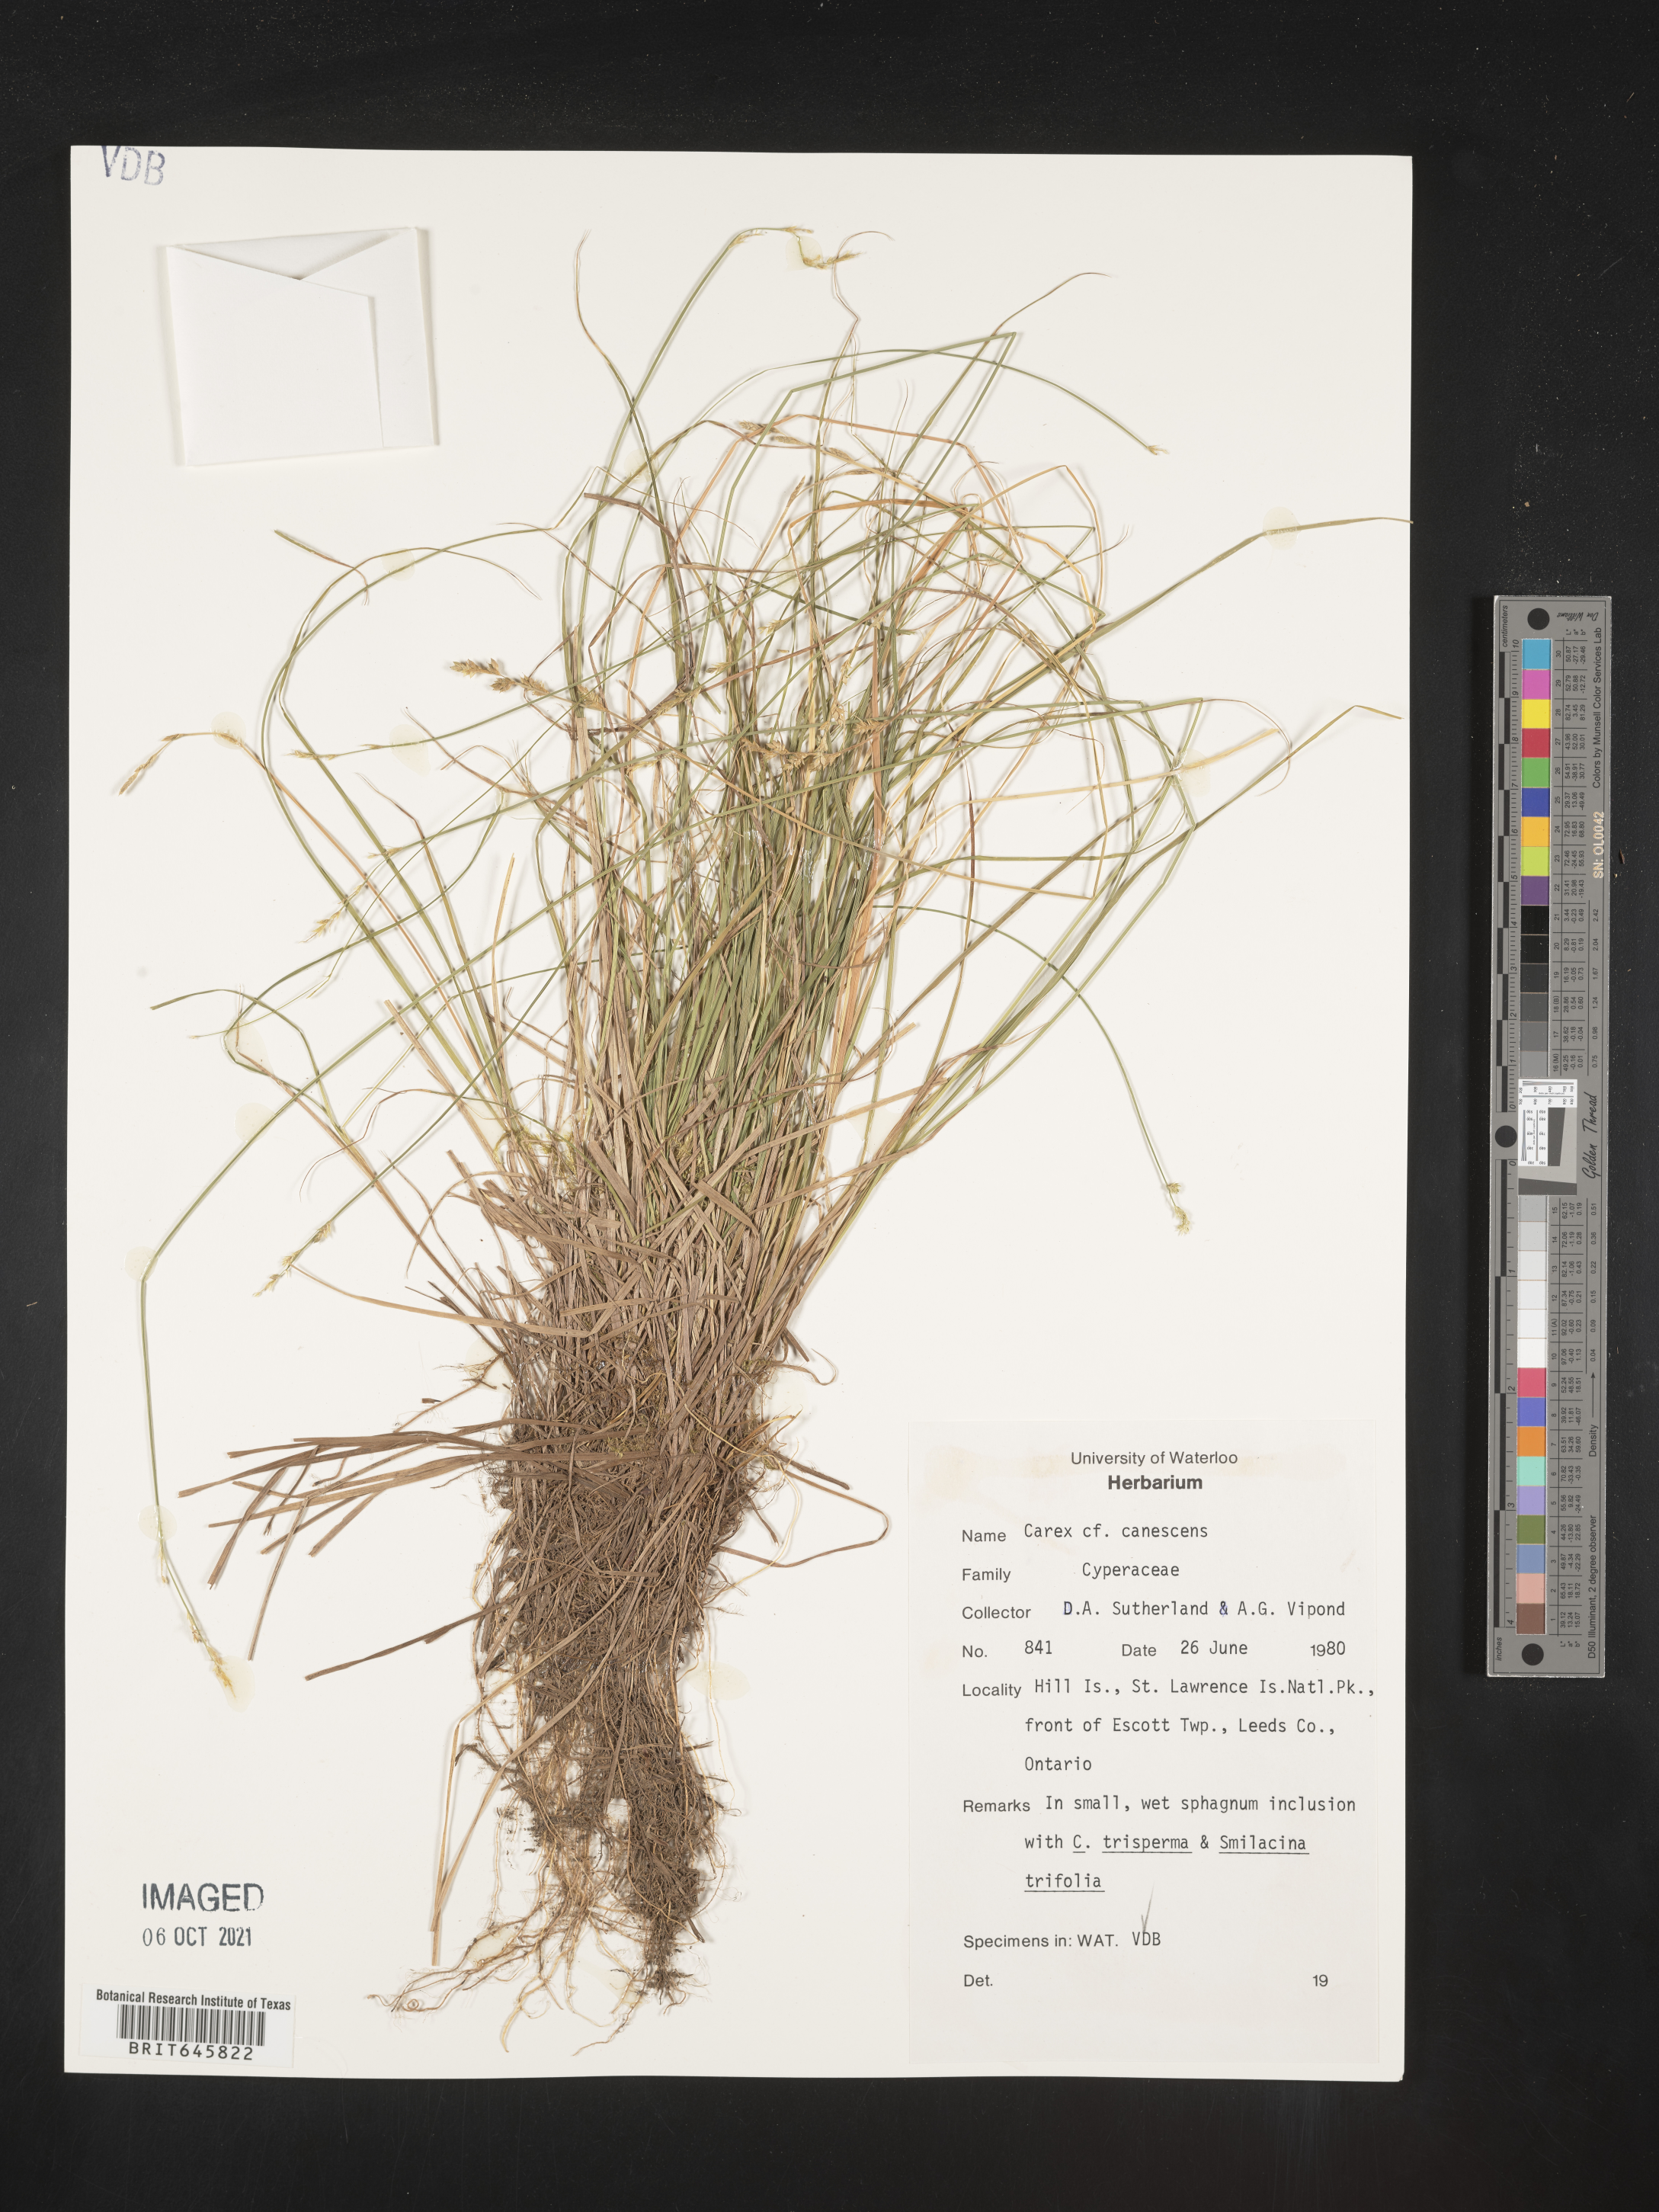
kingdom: Plantae
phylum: Tracheophyta
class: Liliopsida
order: Poales
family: Cyperaceae
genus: Carex
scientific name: Carex canescens
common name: White sedge
